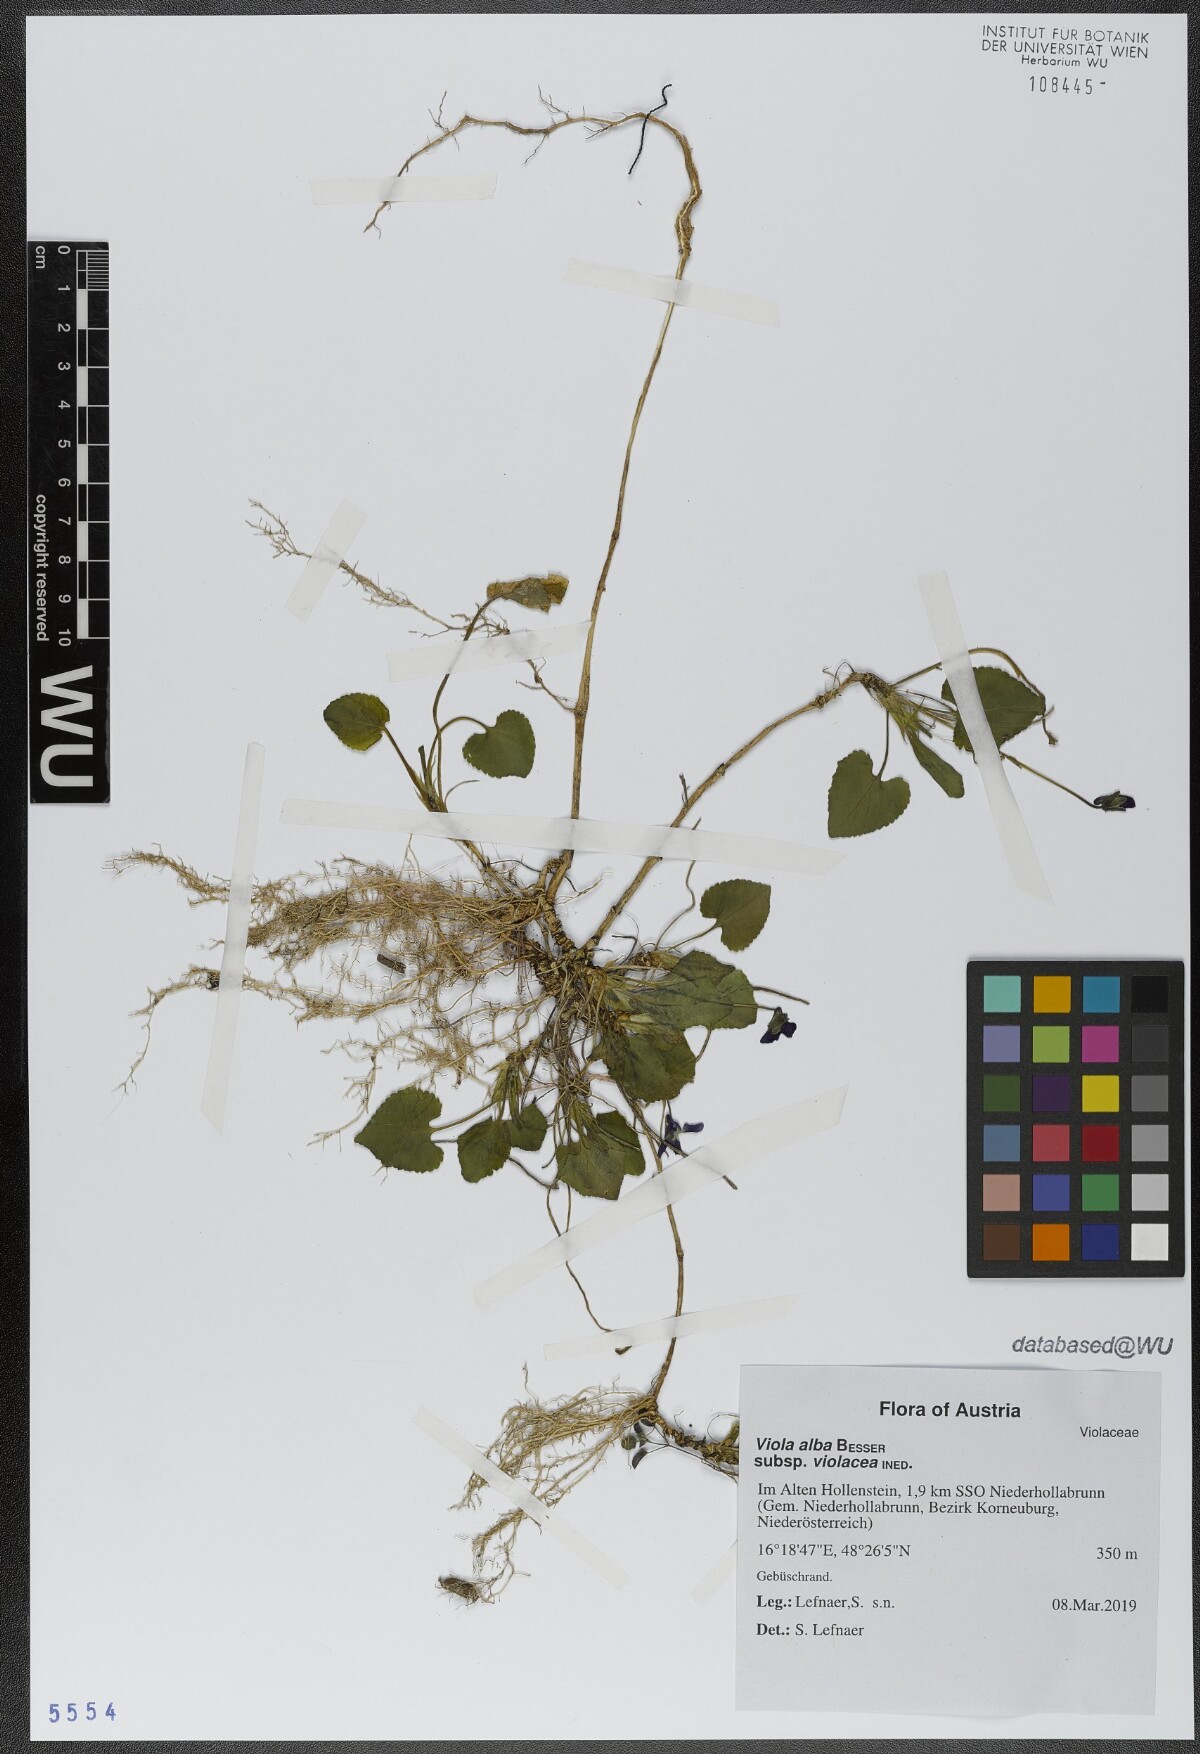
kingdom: Plantae
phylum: Tracheophyta
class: Magnoliopsida
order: Malpighiales
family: Violaceae
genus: Viola
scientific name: Viola alba
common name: White violet
